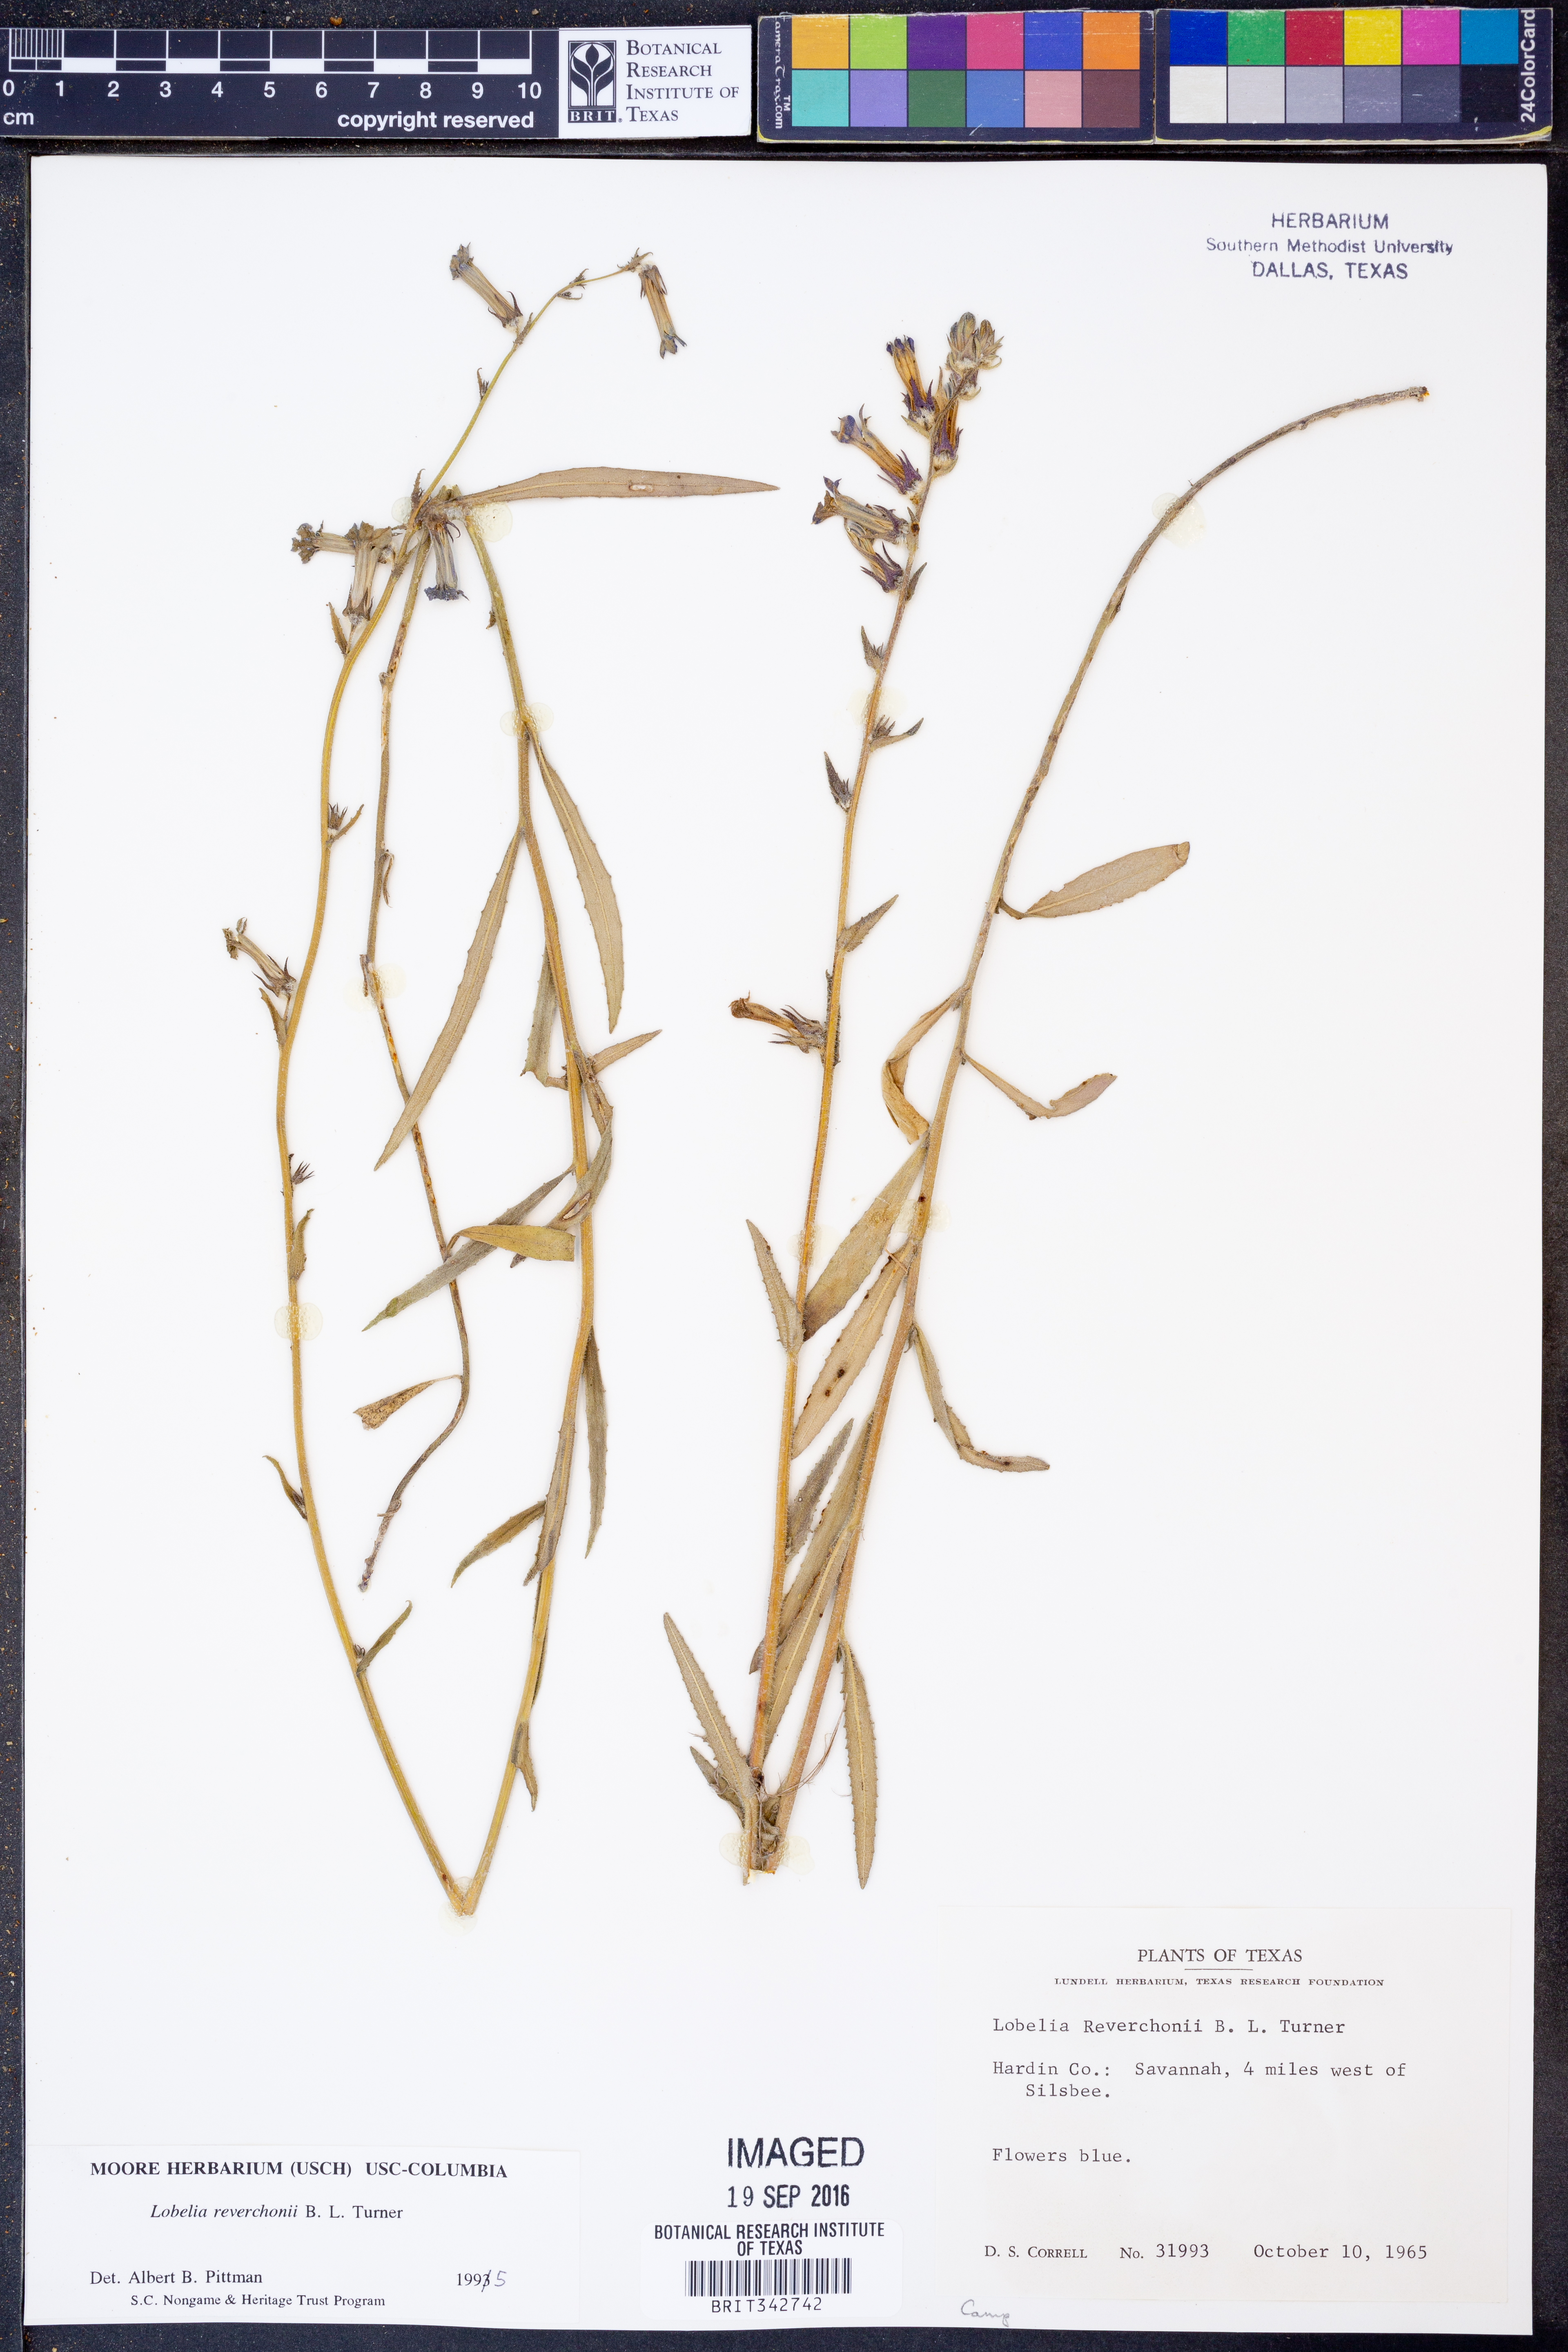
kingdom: Plantae
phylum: Tracheophyta
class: Magnoliopsida
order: Asterales
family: Campanulaceae
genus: Lobelia
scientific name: Lobelia reverchonii
